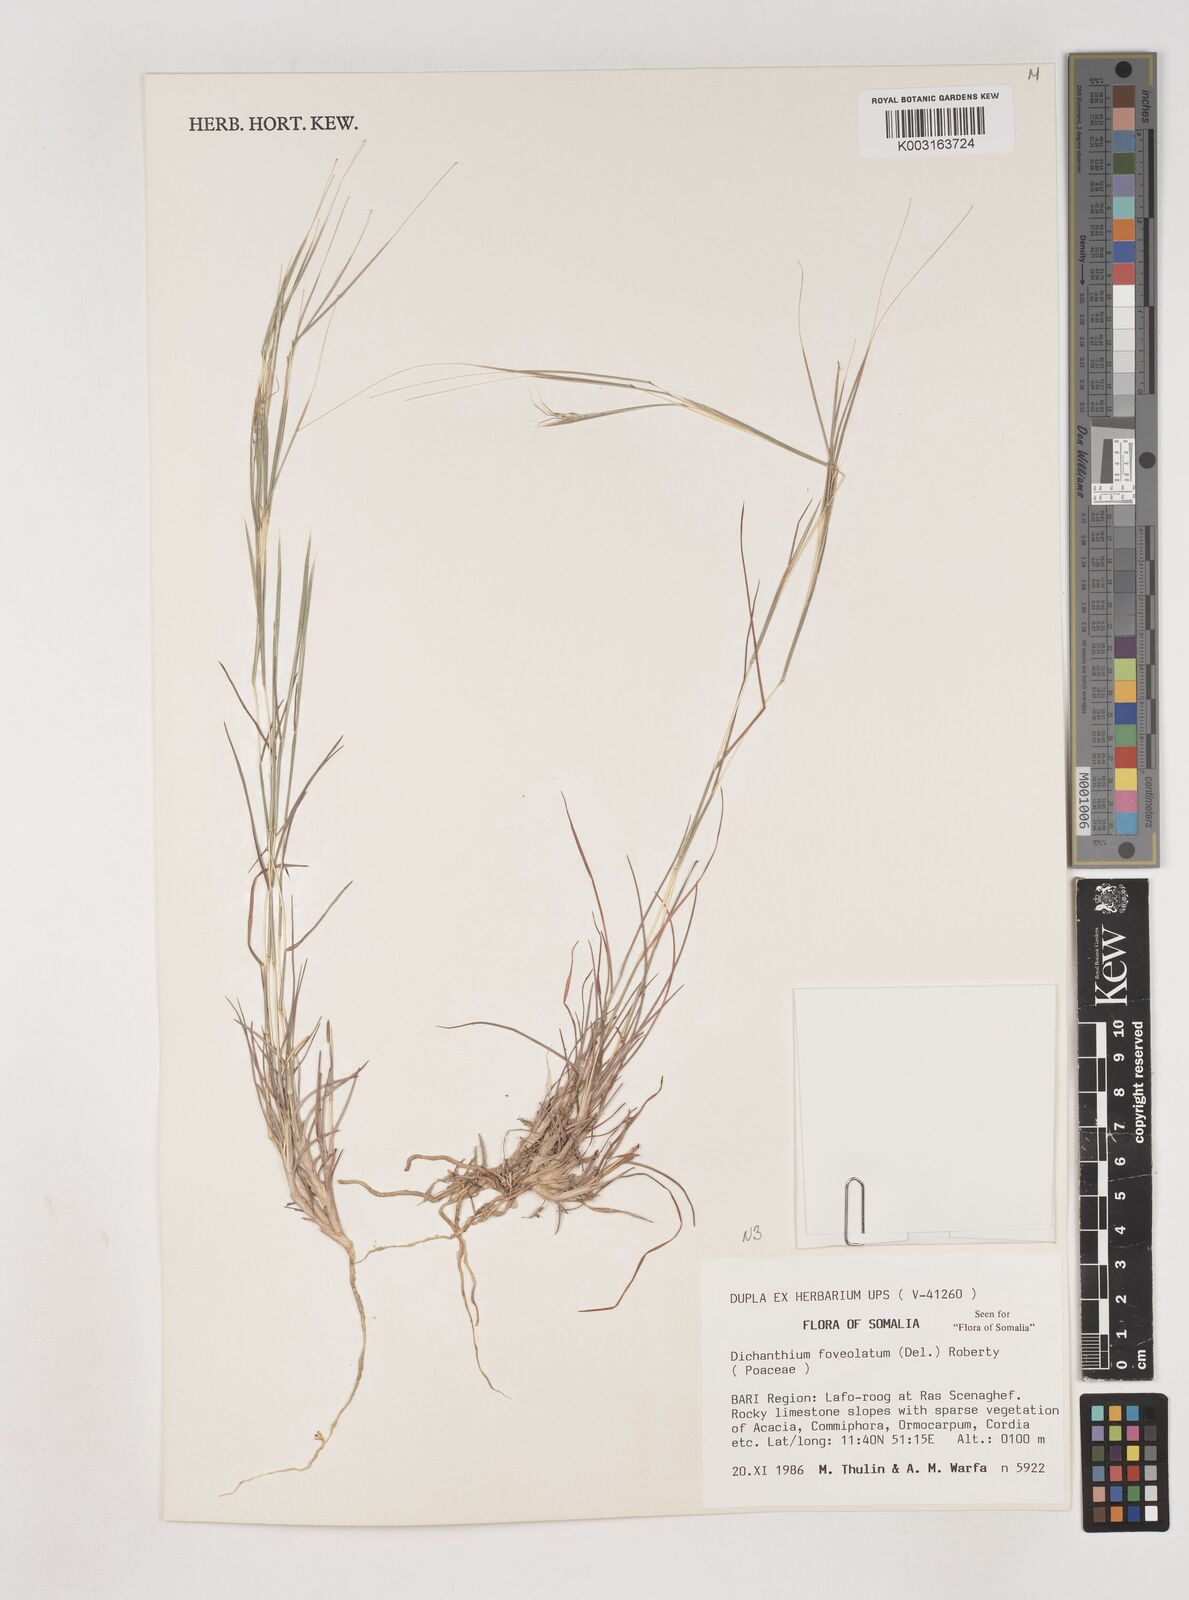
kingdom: Plantae
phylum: Tracheophyta
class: Liliopsida
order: Poales
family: Poaceae
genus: Dichanthium
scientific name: Dichanthium foveolatum
